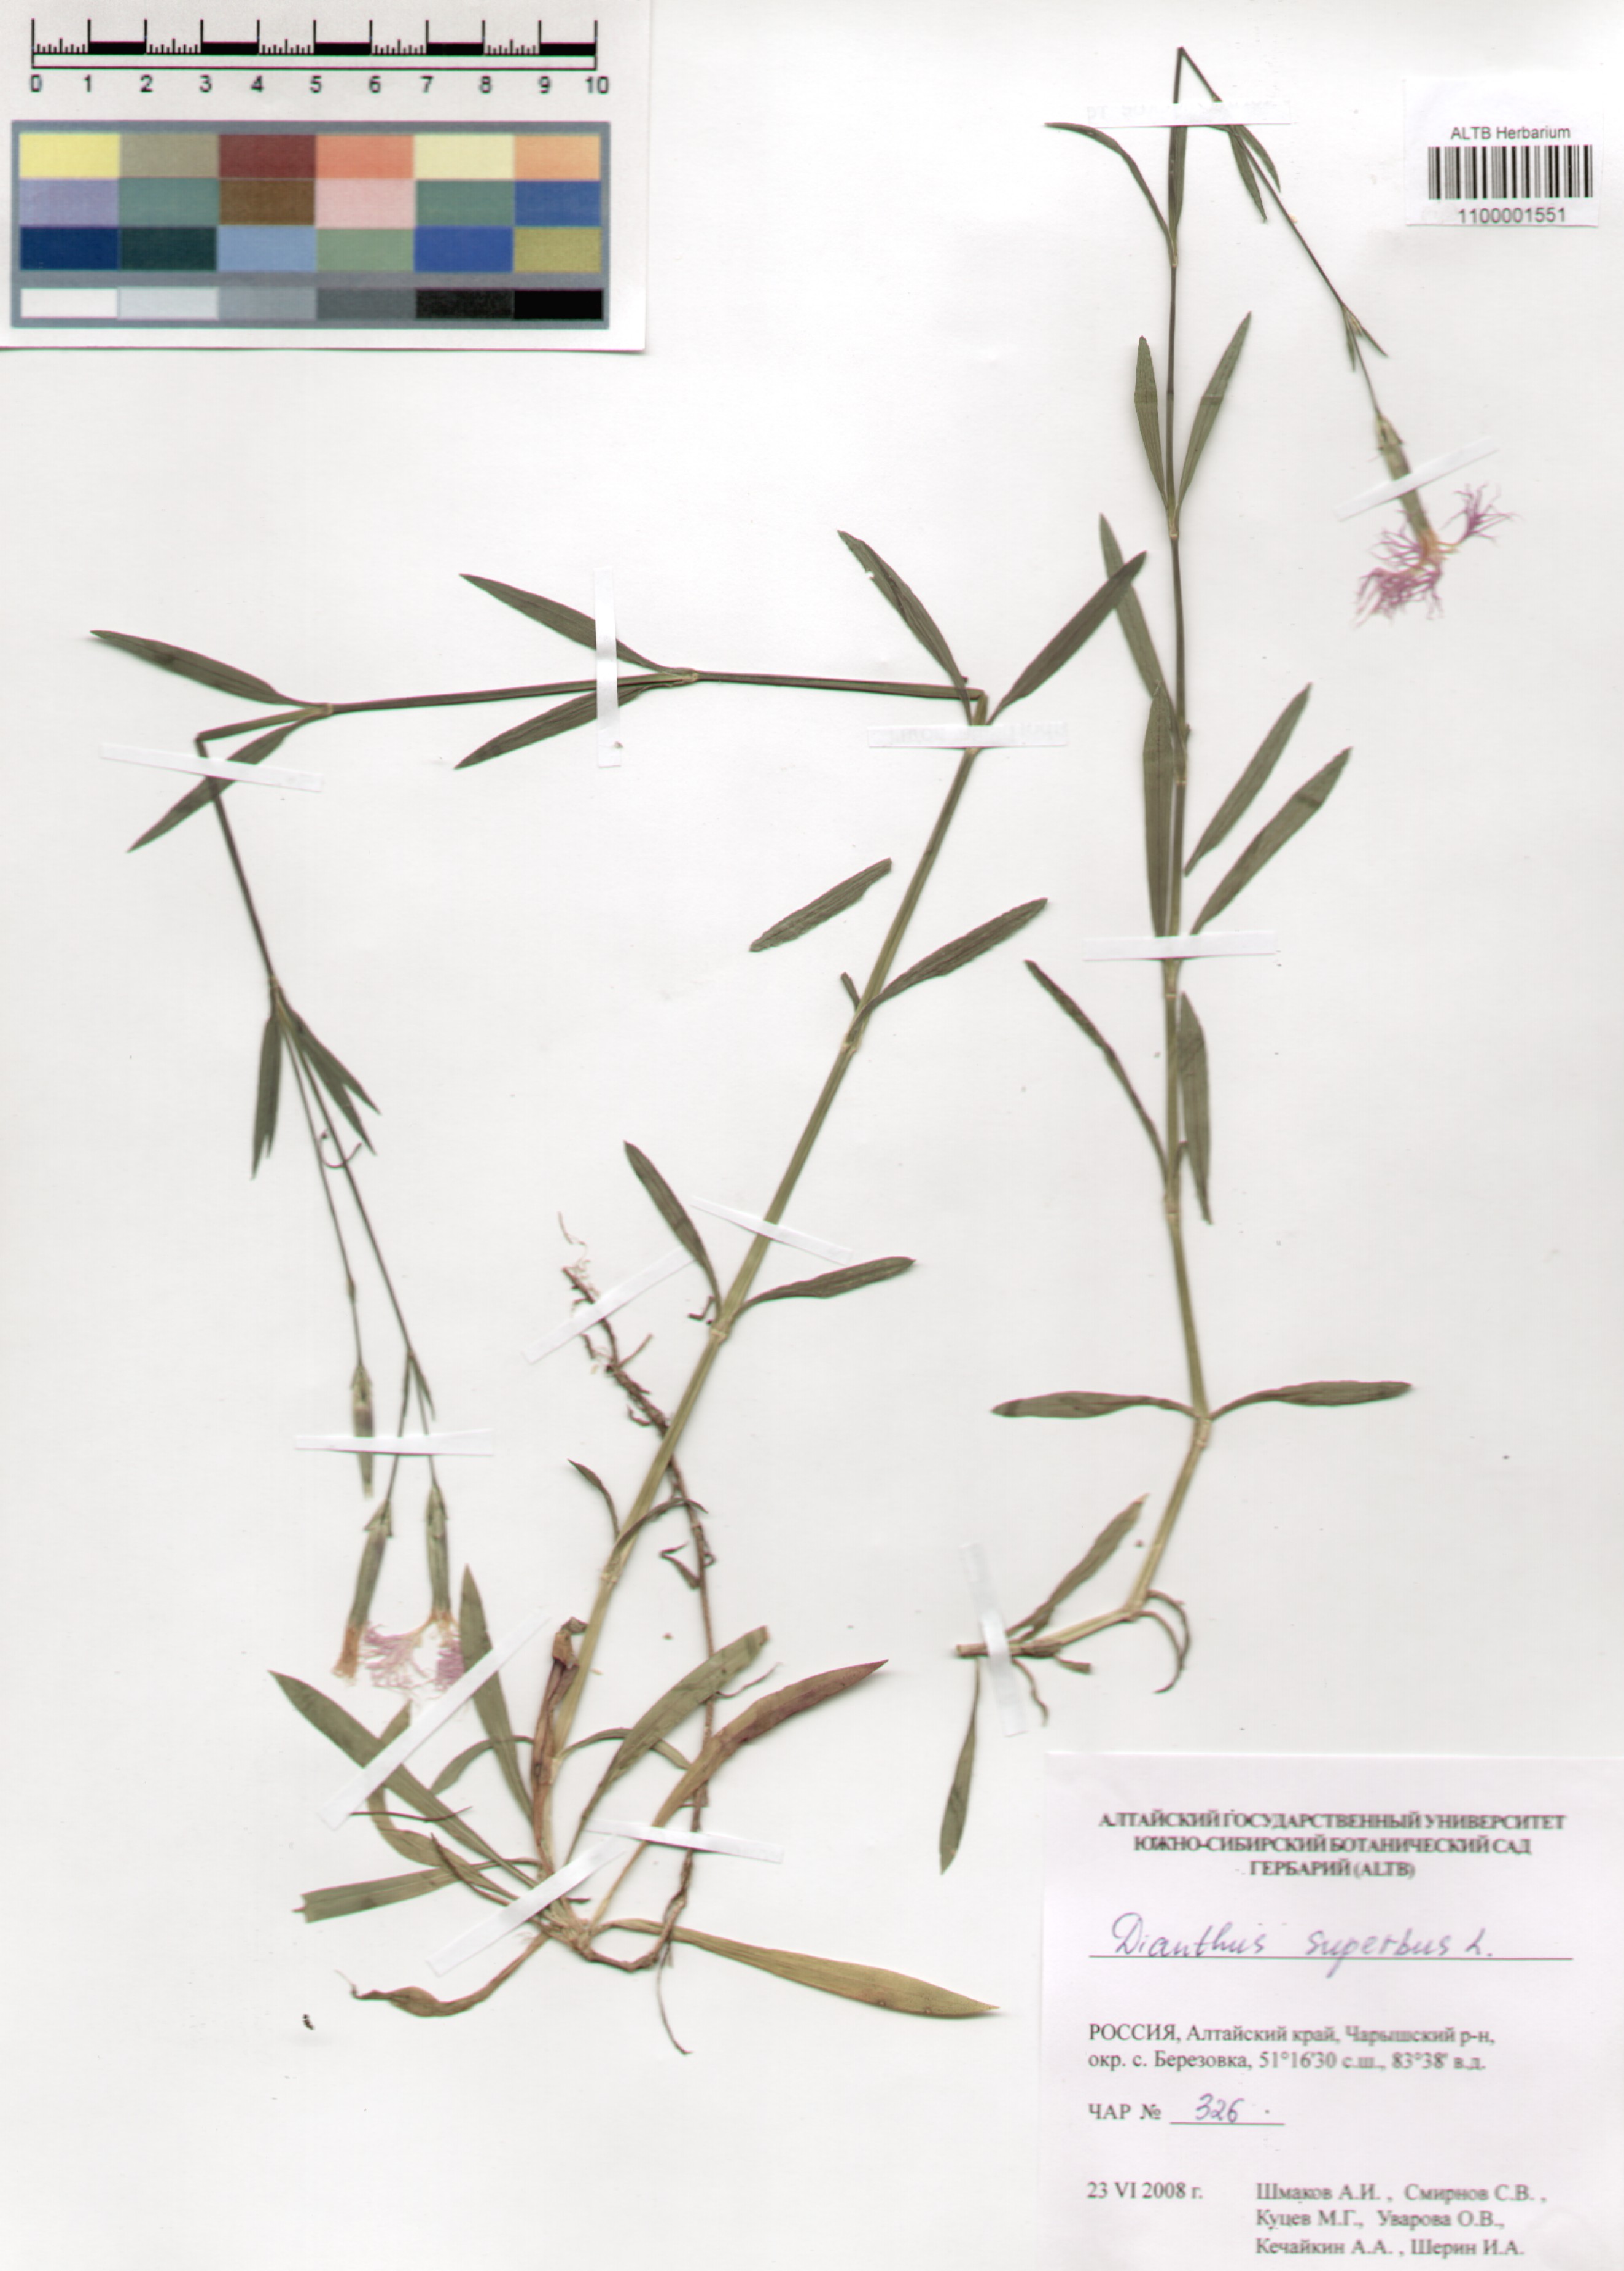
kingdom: Plantae
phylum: Tracheophyta
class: Magnoliopsida
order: Caryophyllales
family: Caryophyllaceae
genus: Dianthus
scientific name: Dianthus superbus
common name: Fringed pink
